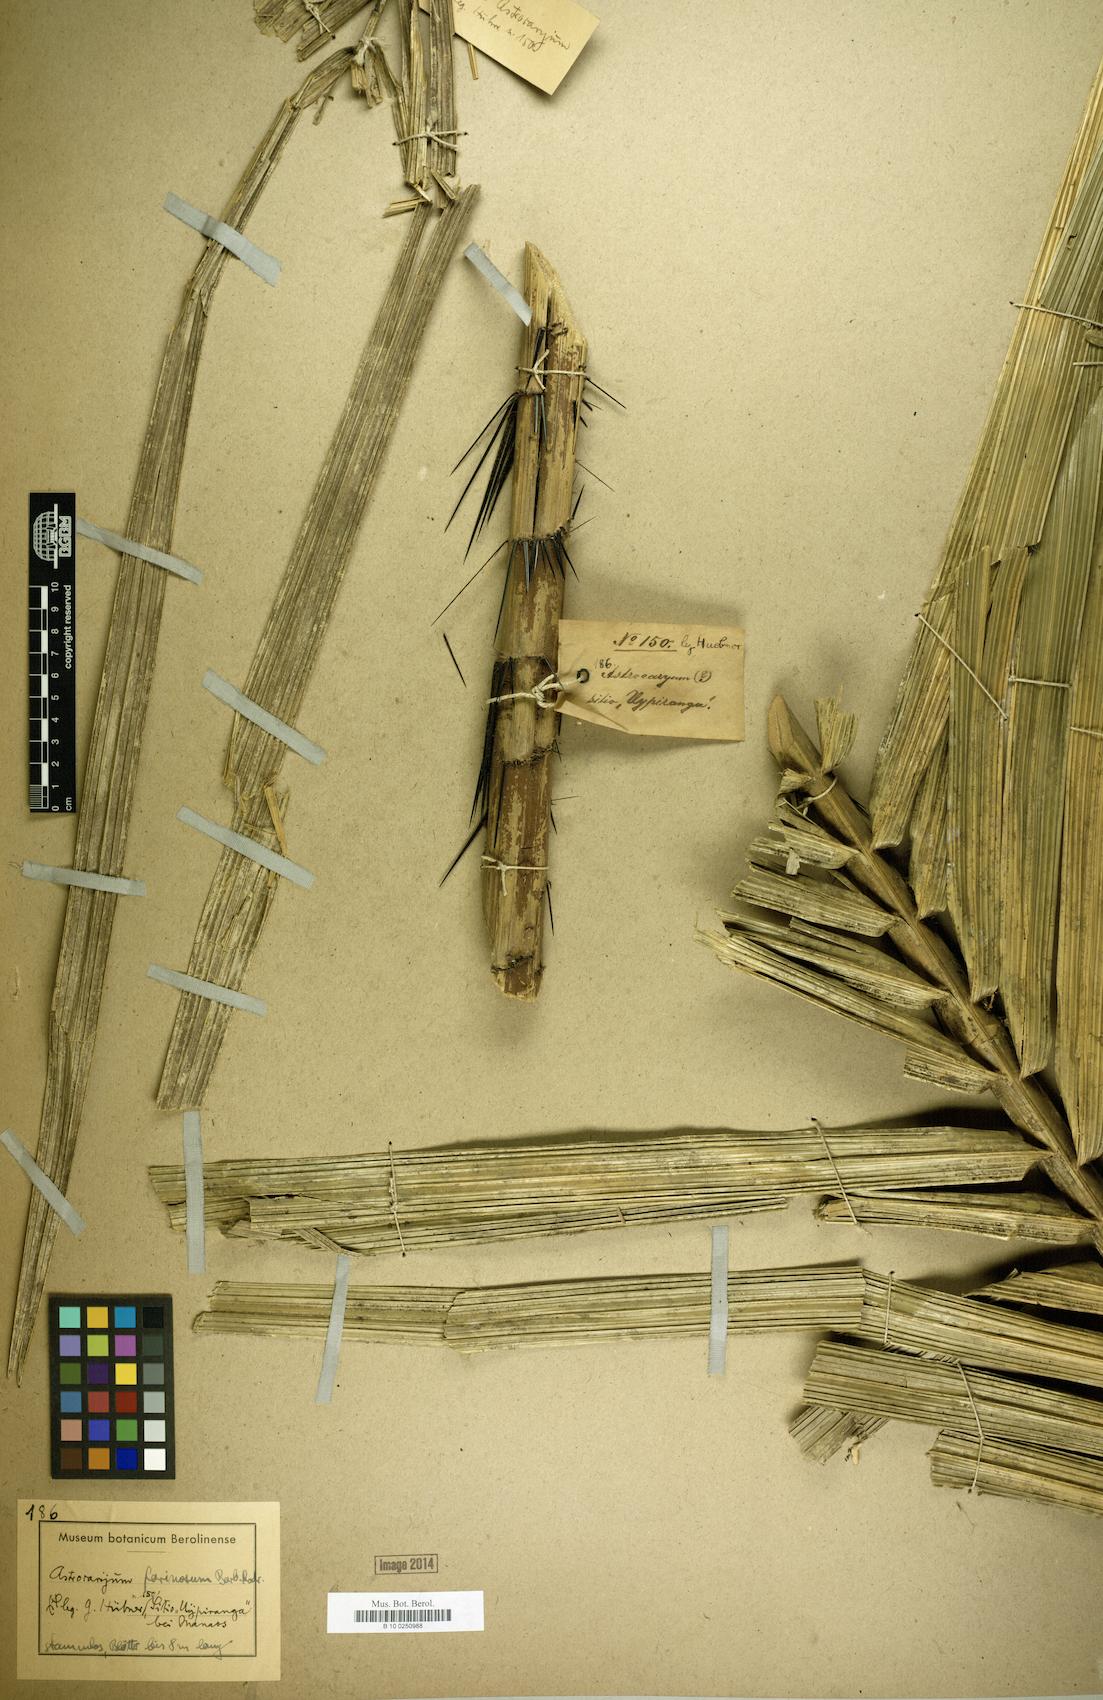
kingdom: Plantae
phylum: Tracheophyta
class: Liliopsida
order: Arecales
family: Arecaceae
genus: Astrocaryum
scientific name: Astrocaryum farinosum
